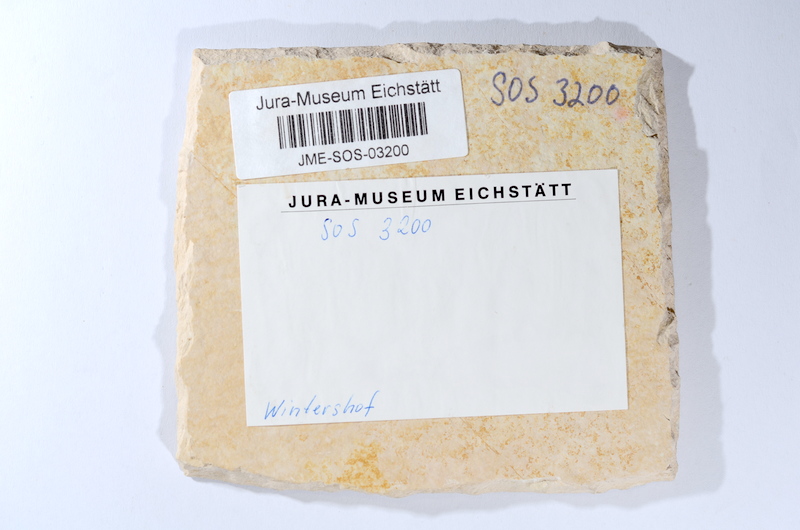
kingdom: Animalia
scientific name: Animalia
